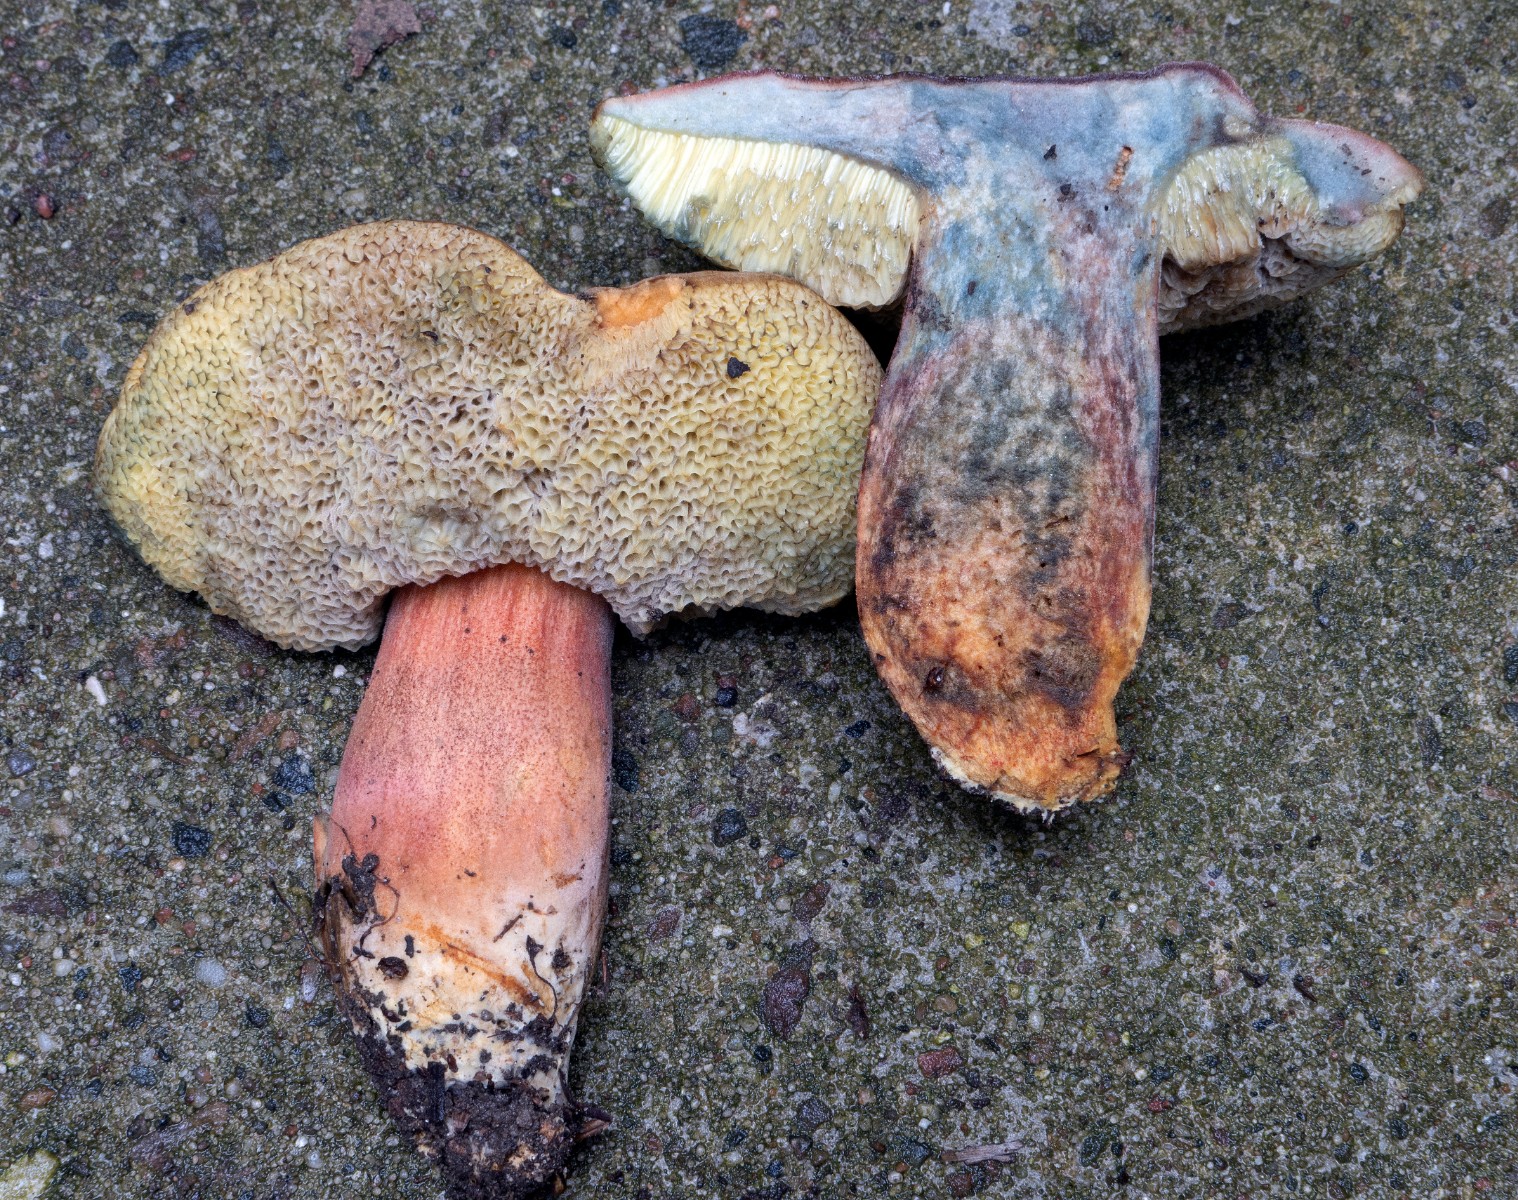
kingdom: Fungi
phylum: Basidiomycota
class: Agaricomycetes
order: Boletales
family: Boletaceae
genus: Hortiboletus
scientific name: Hortiboletus rubellus
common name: blodrød rørhat
